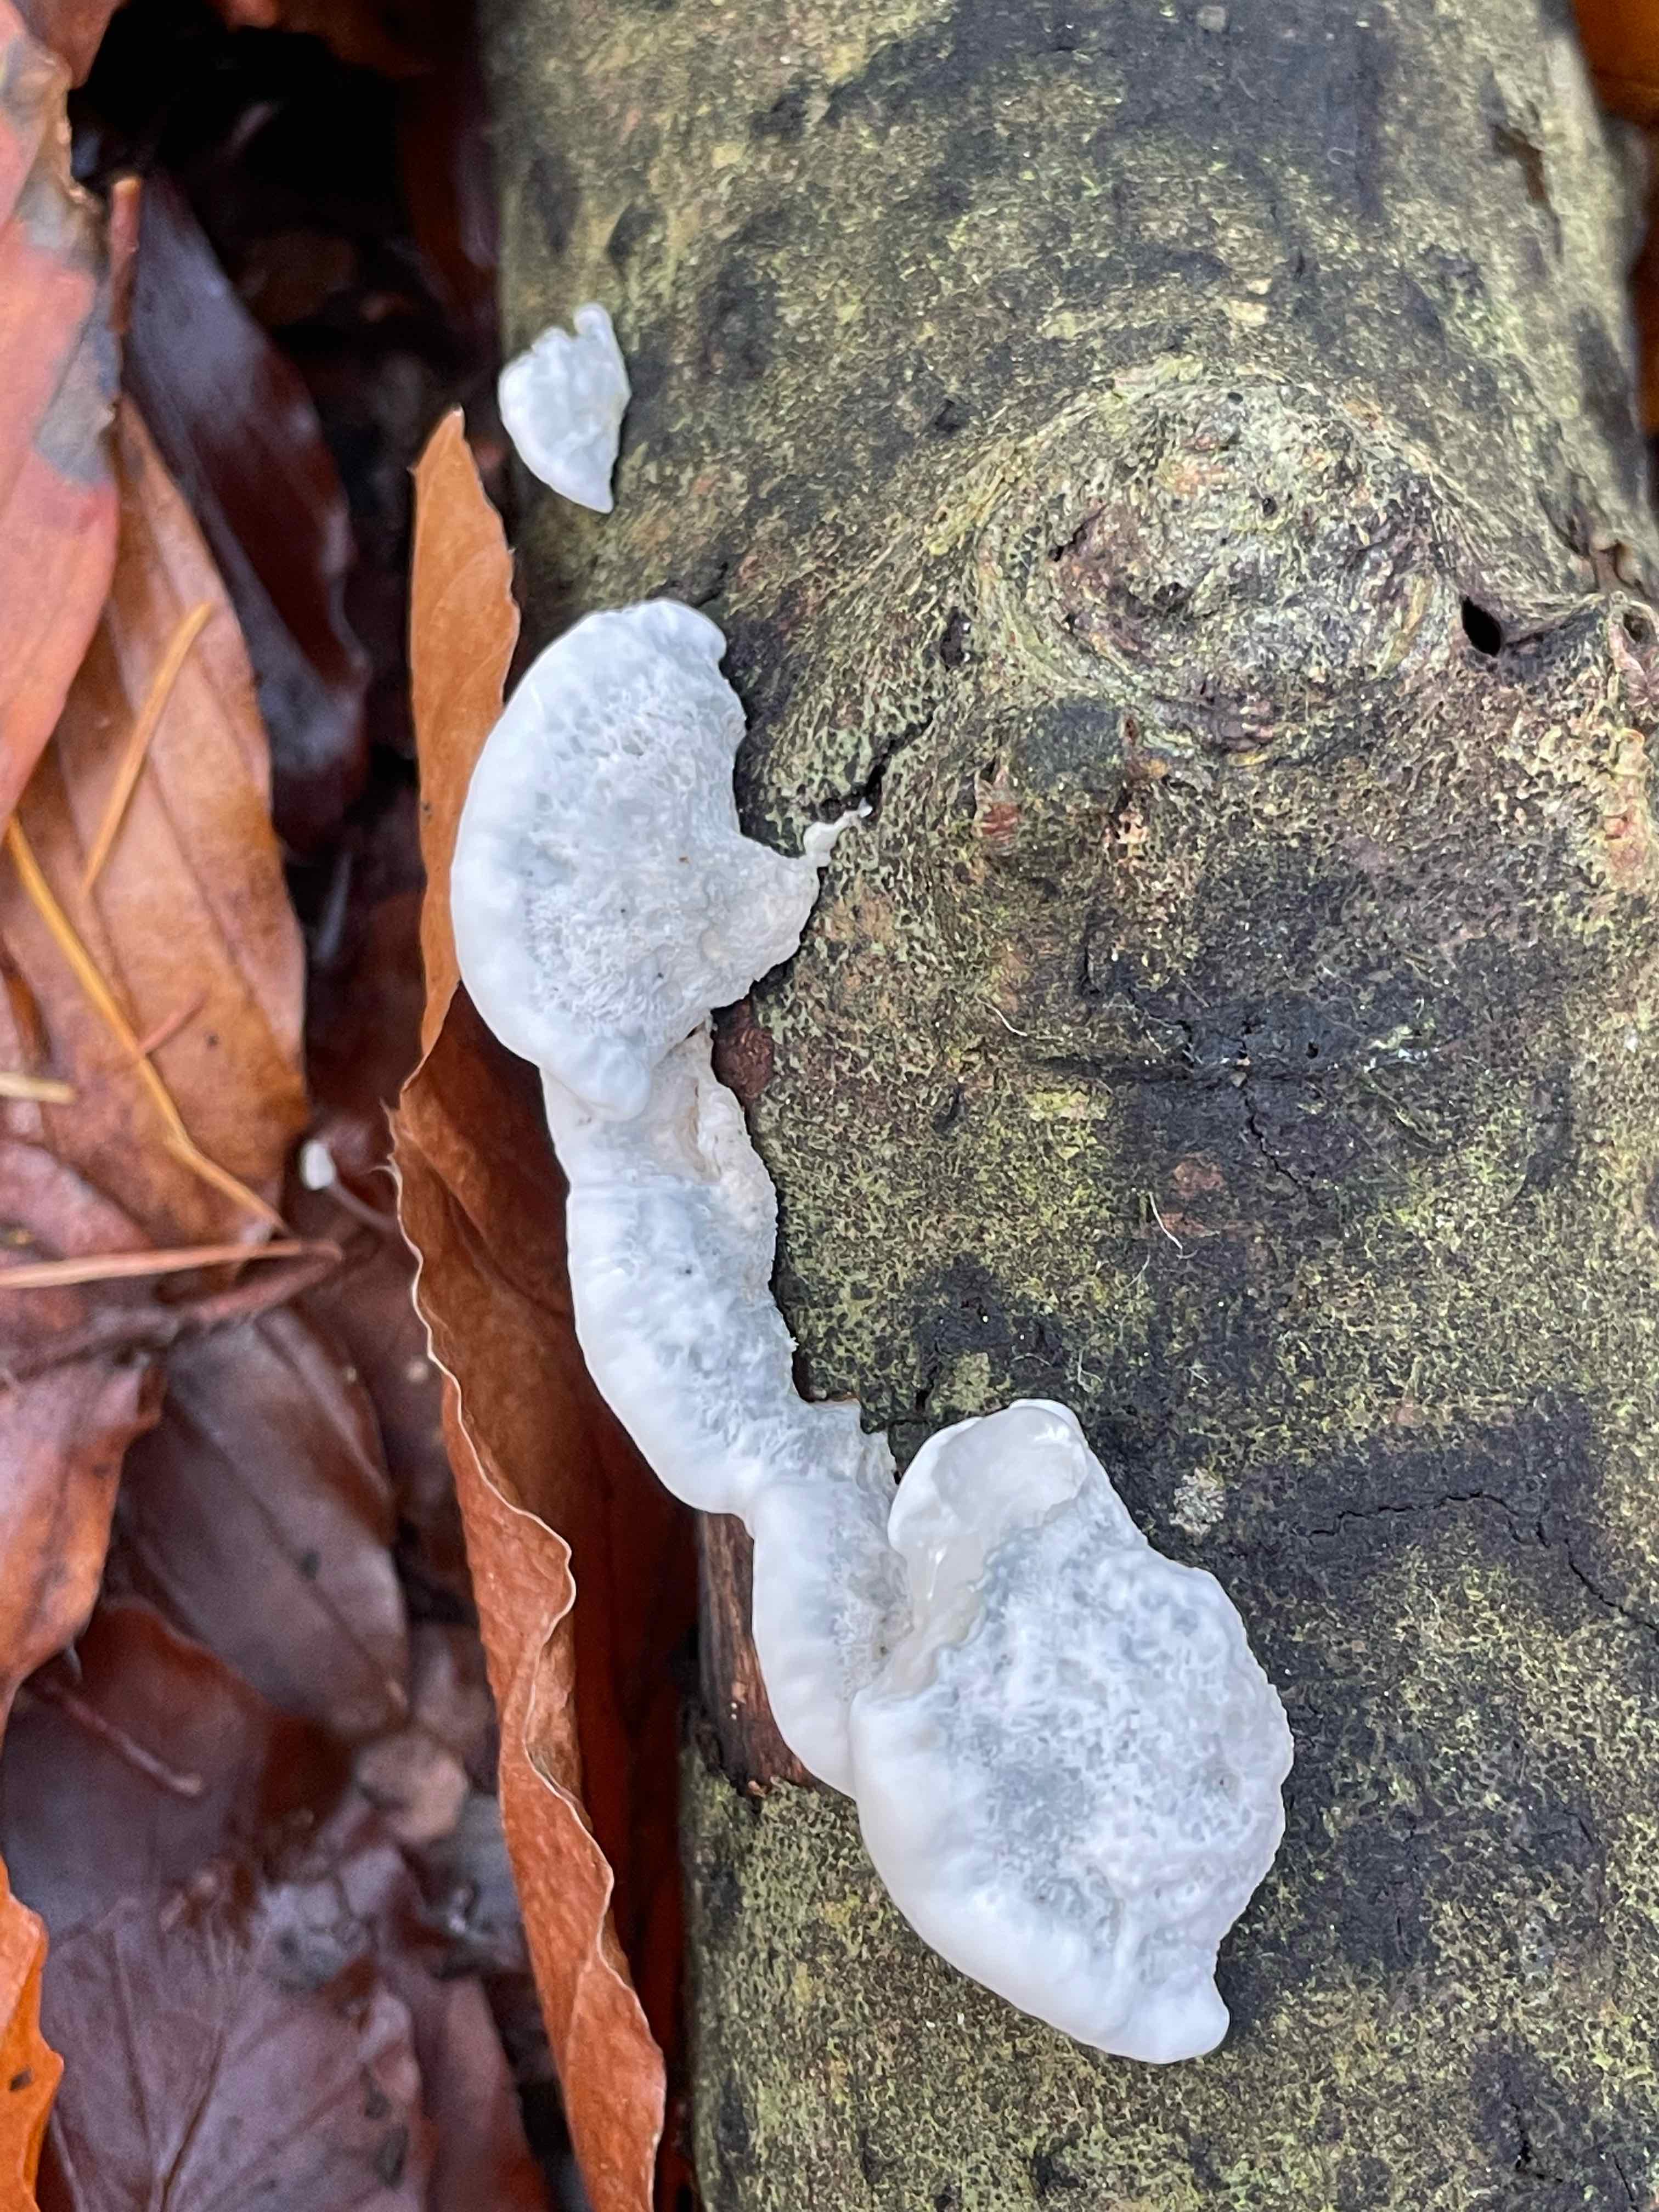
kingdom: Fungi
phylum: Basidiomycota
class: Agaricomycetes
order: Polyporales
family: Polyporaceae
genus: Cyanosporus
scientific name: Cyanosporus alni
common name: blegblå kødporesvamp
